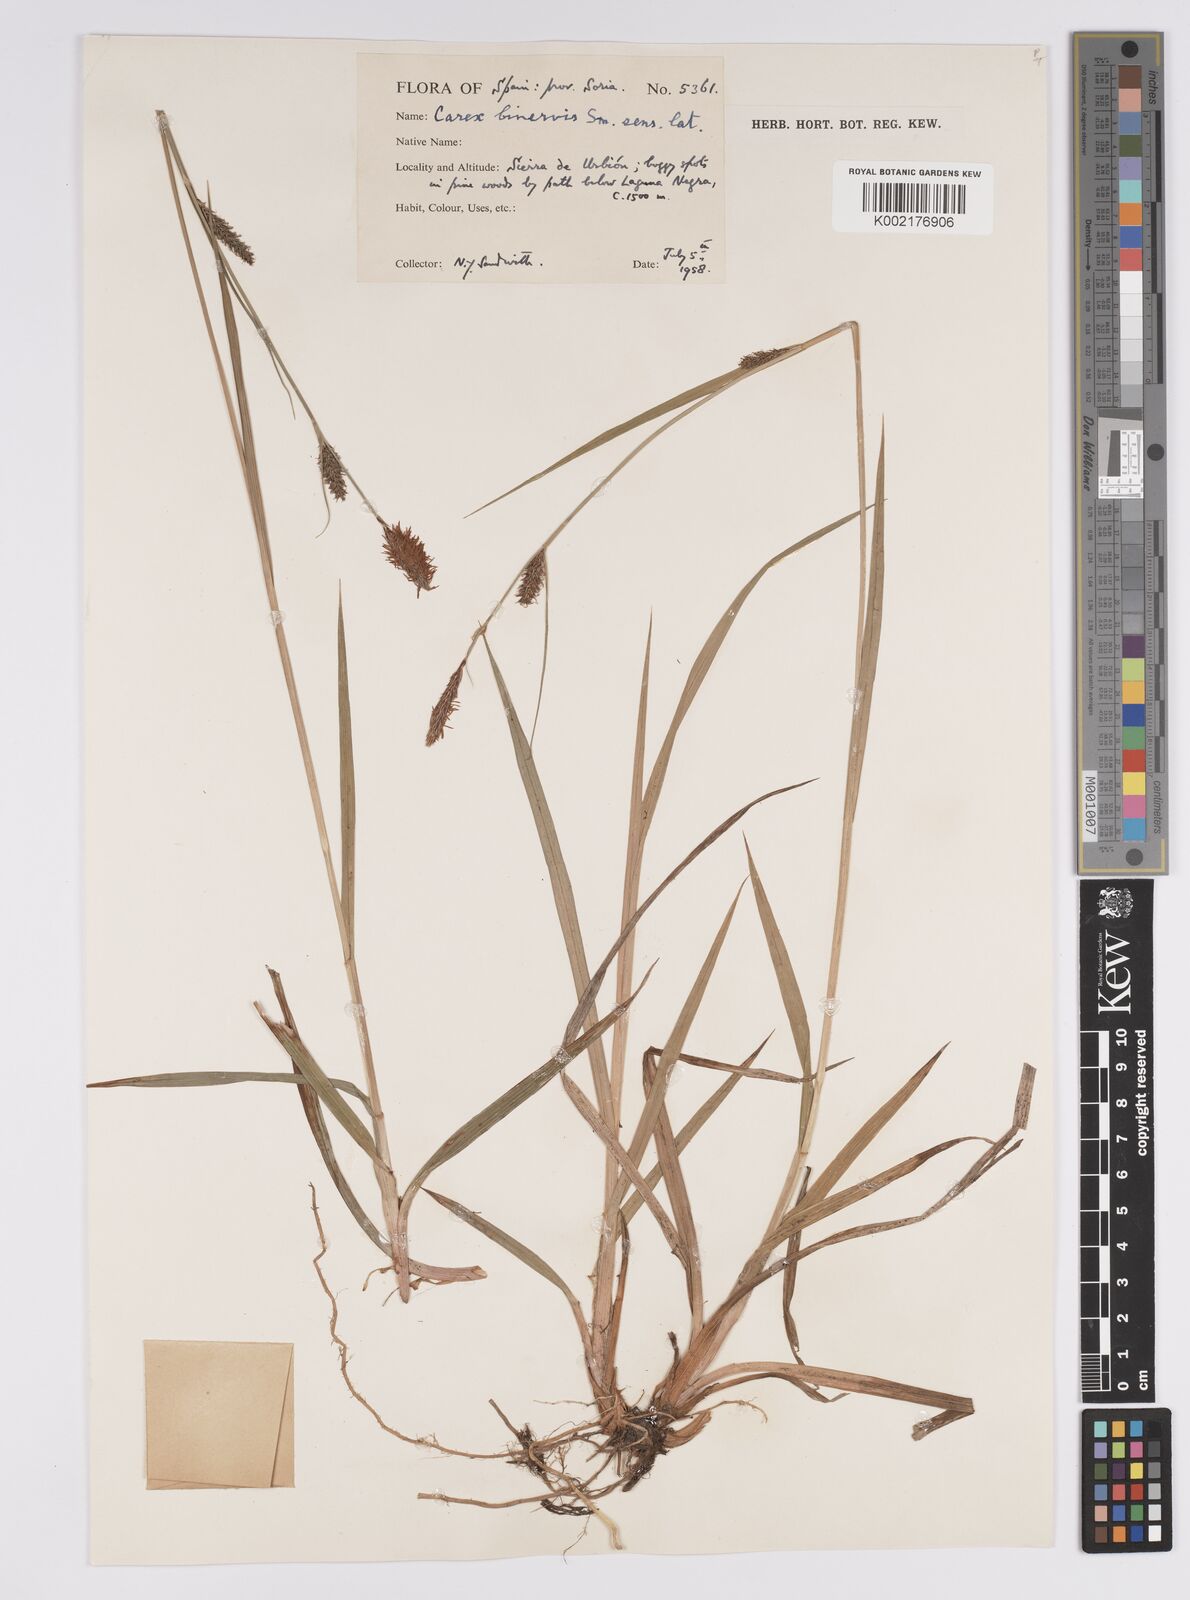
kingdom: Plantae
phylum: Tracheophyta
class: Liliopsida
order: Poales
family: Cyperaceae
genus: Carex
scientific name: Carex binervis
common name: Green-ribbed sedge
